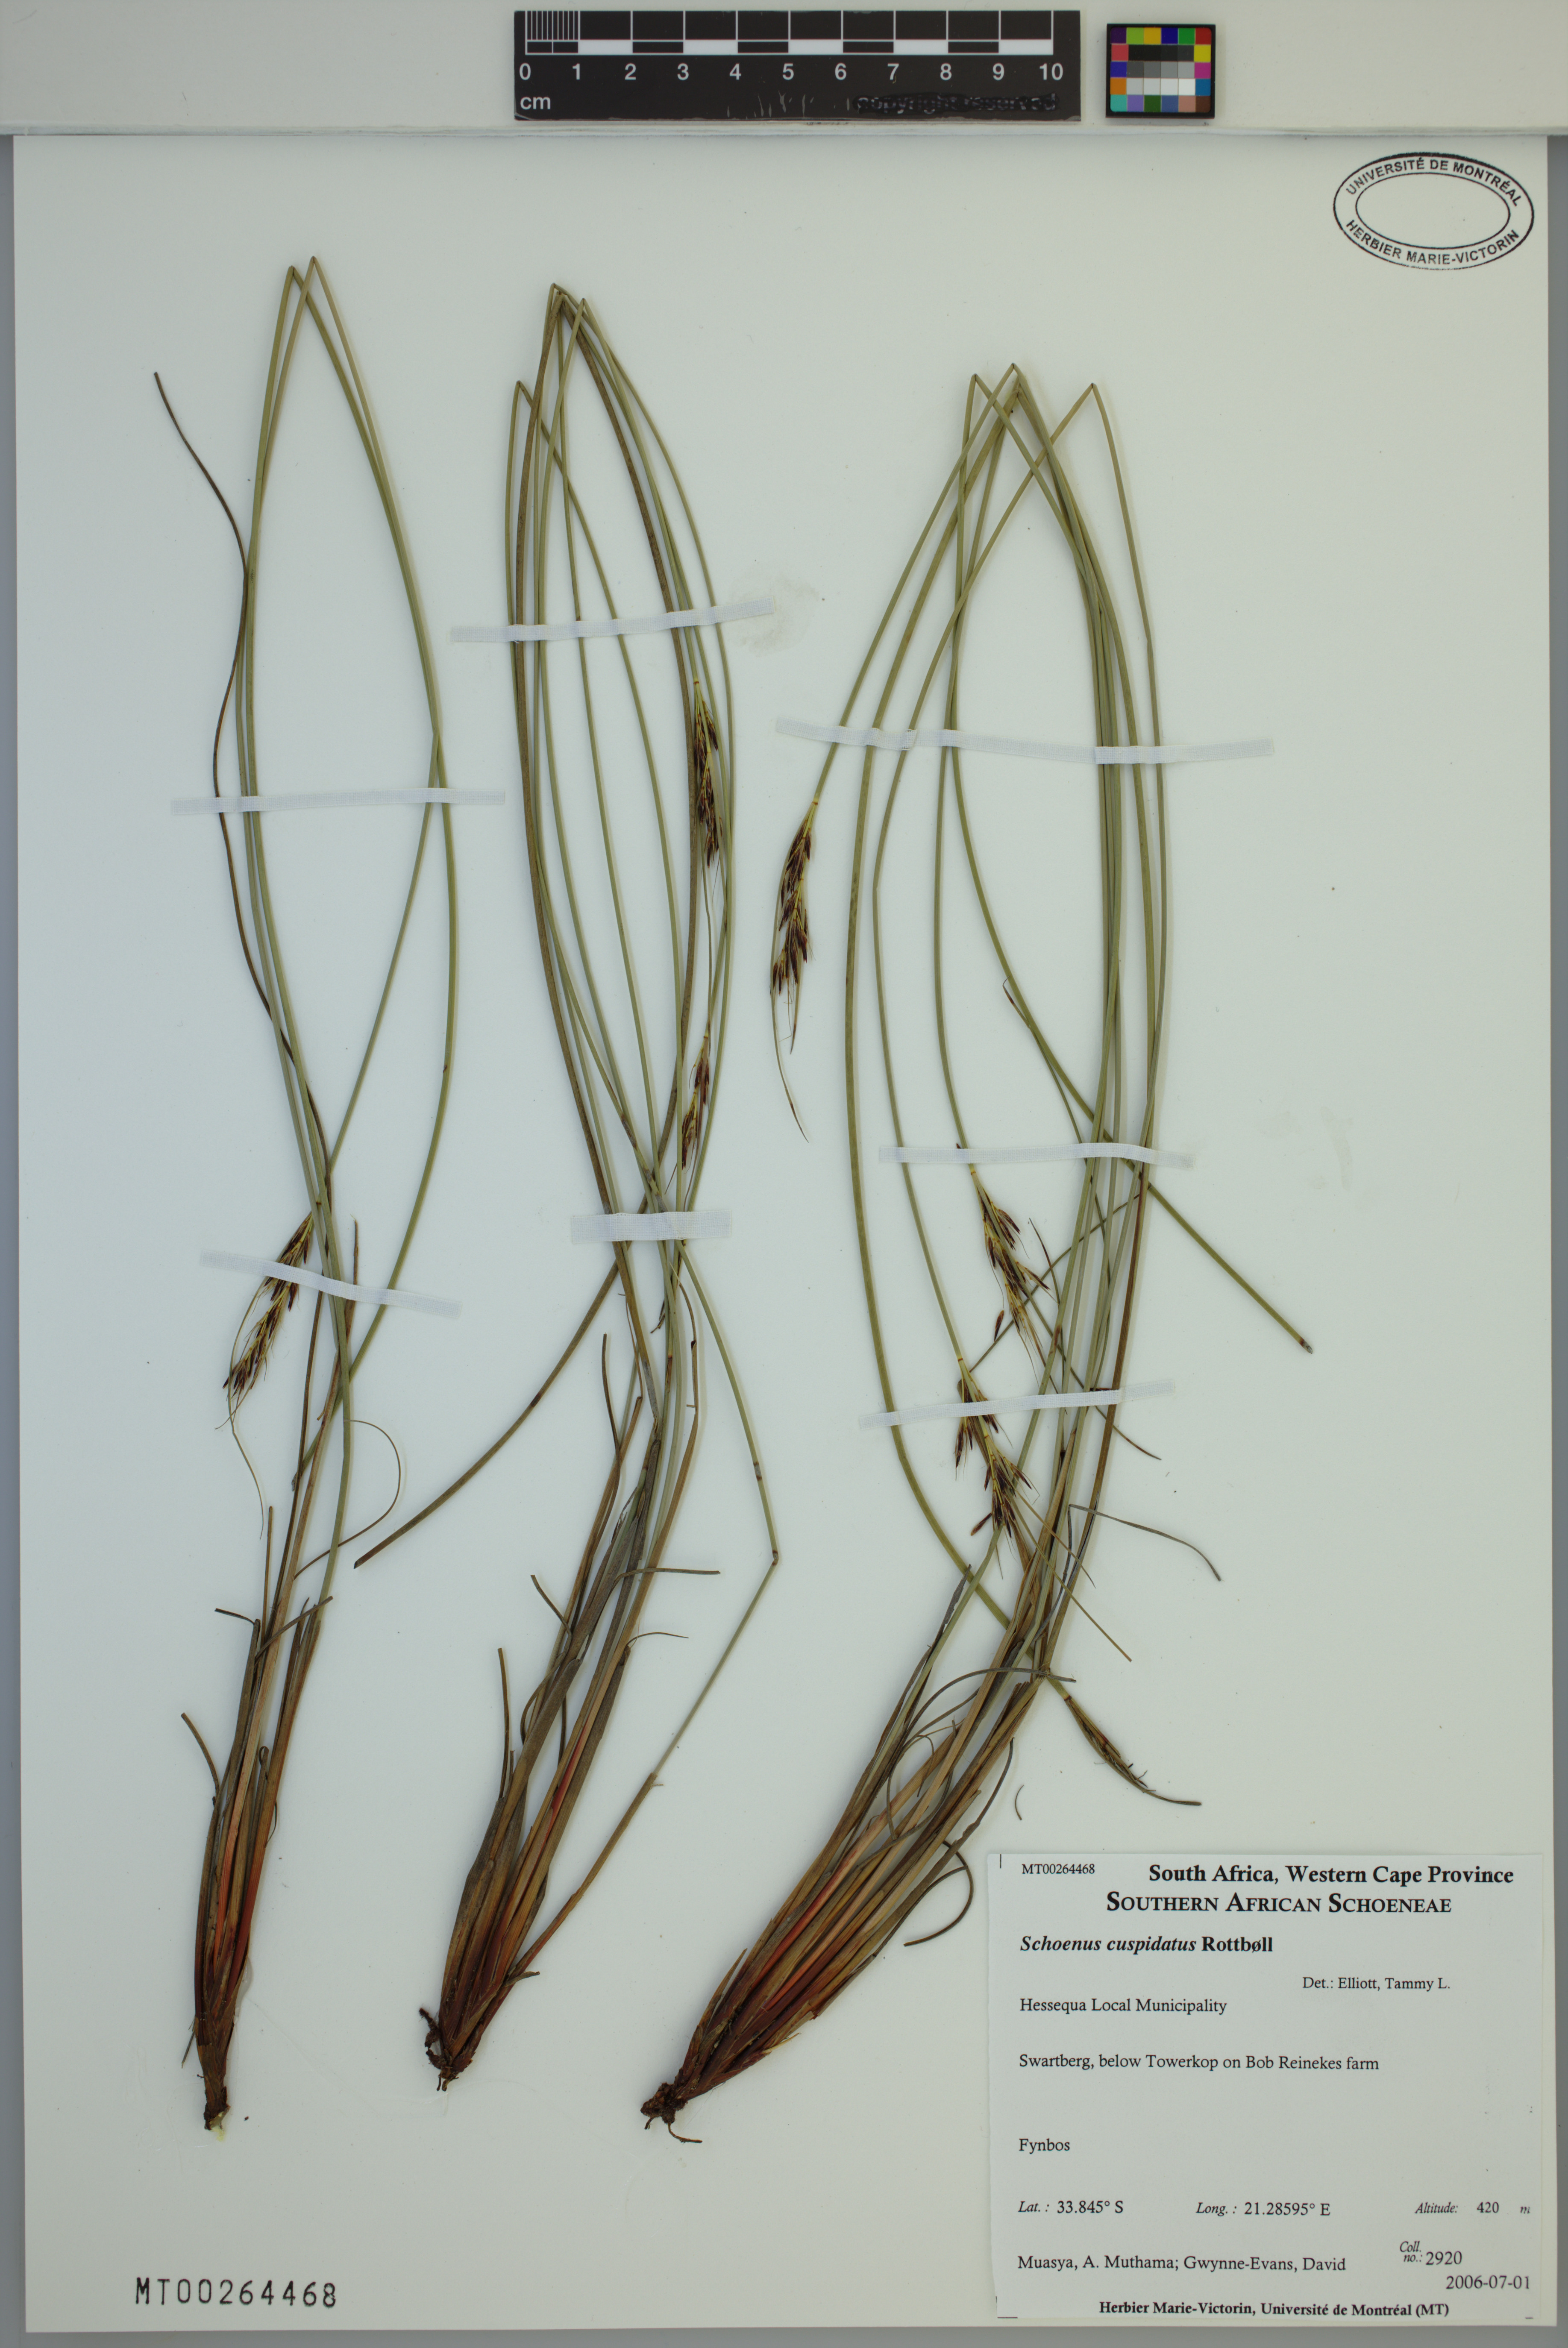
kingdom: Plantae
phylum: Tracheophyta
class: Liliopsida
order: Poales
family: Cyperaceae
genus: Schoenus
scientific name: Schoenus cuspidatus
